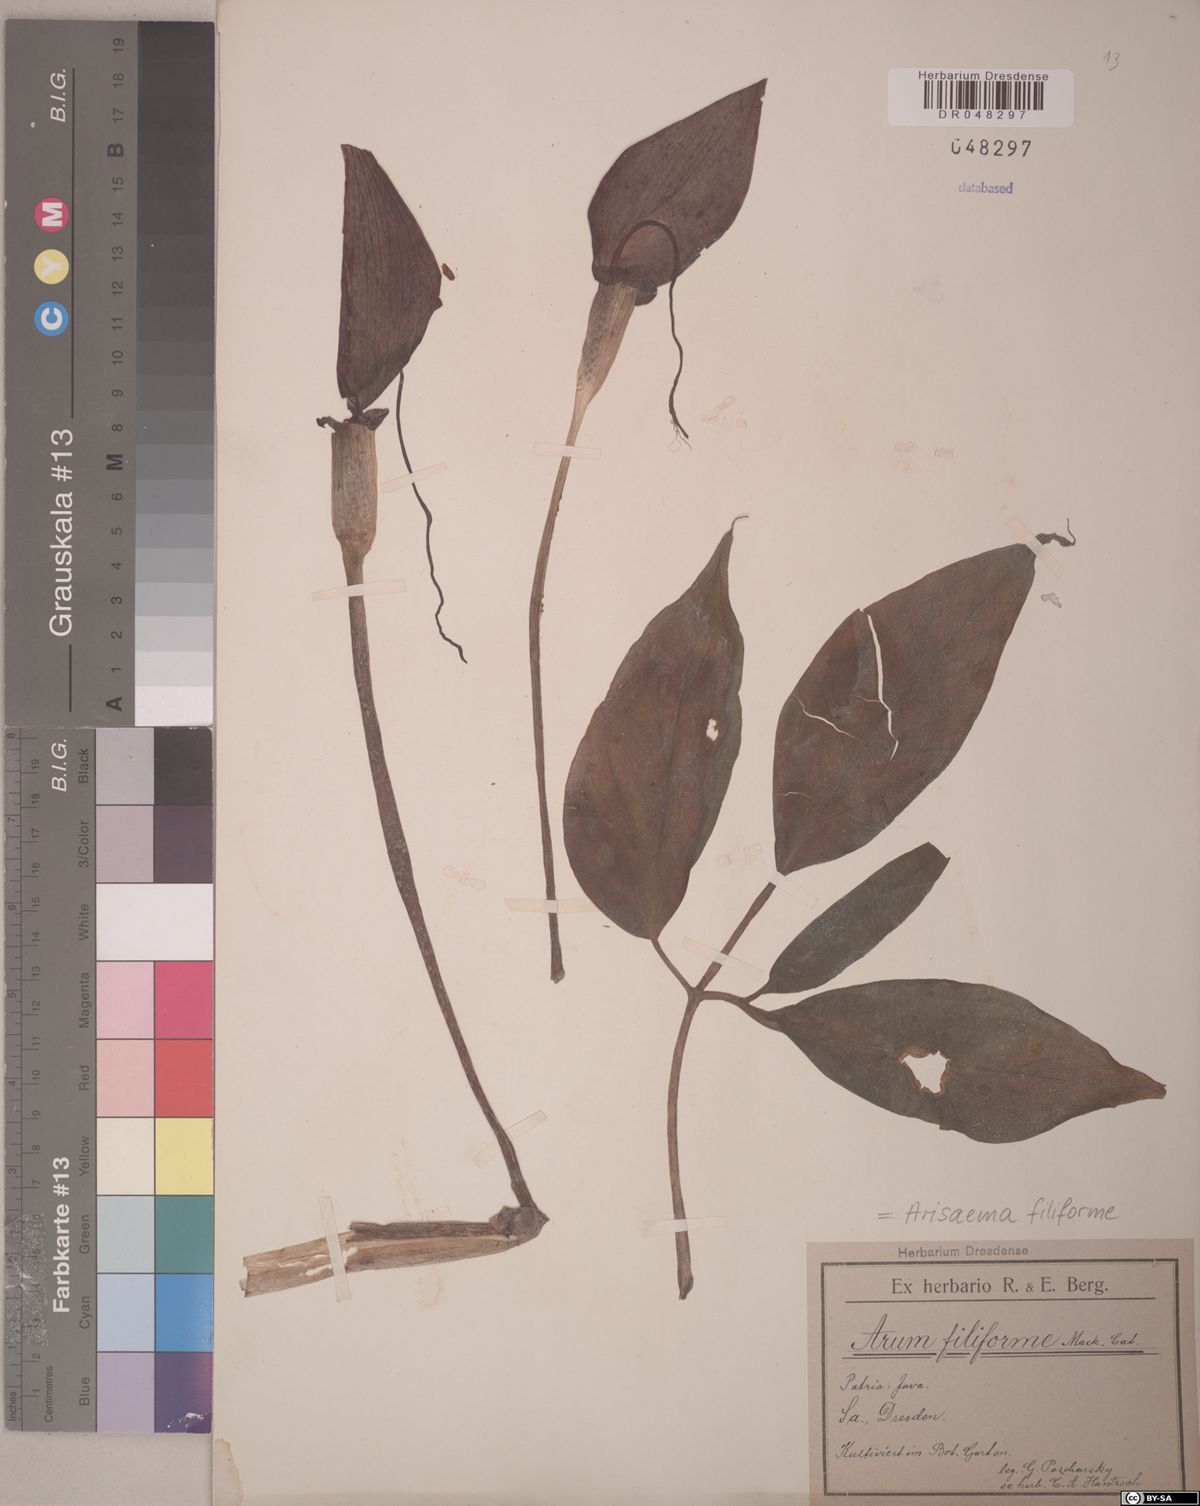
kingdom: Plantae
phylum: Tracheophyta
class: Liliopsida
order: Alismatales
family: Araceae
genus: Arisaema
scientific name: Arisaema filiforme
